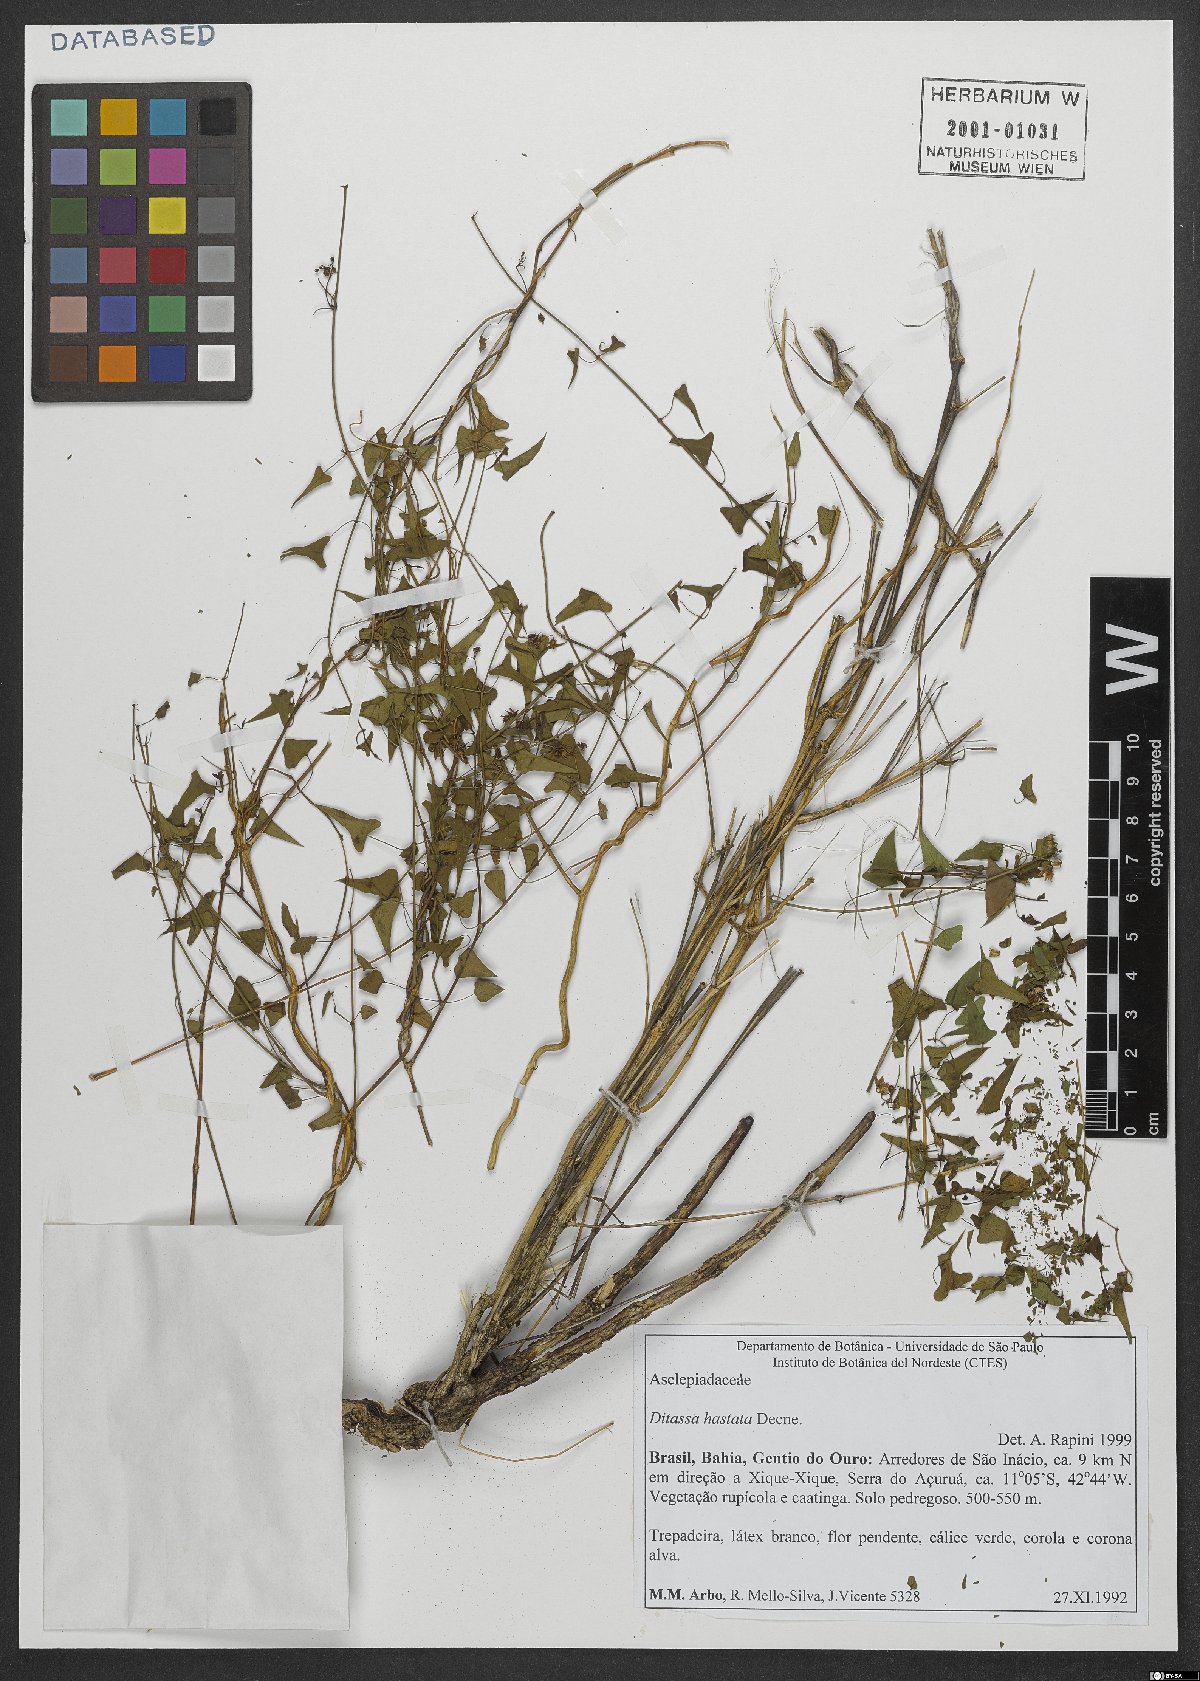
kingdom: Plantae
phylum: Tracheophyta
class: Magnoliopsida
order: Gentianales
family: Apocynaceae
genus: Ditassa
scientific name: Ditassa hastata
